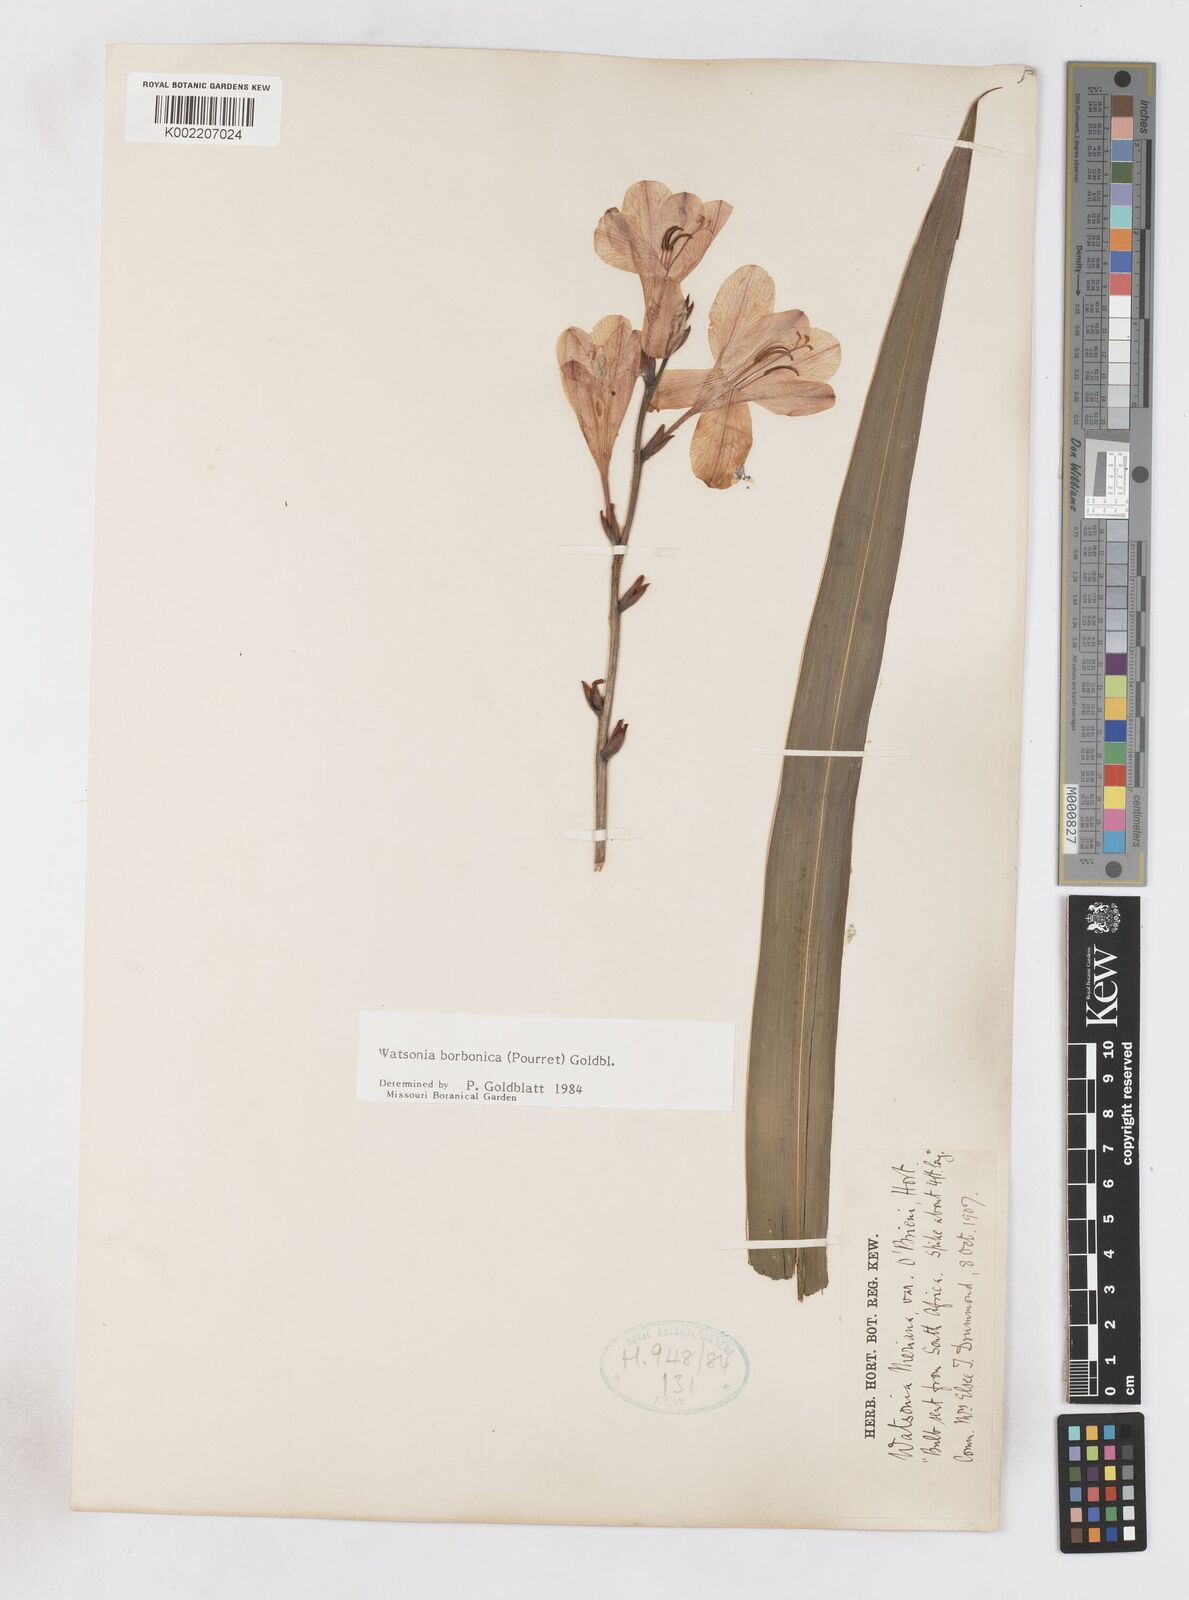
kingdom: Plantae
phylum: Tracheophyta
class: Liliopsida
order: Asparagales
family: Iridaceae
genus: Watsonia
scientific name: Watsonia borbonica
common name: Bugle-lily
